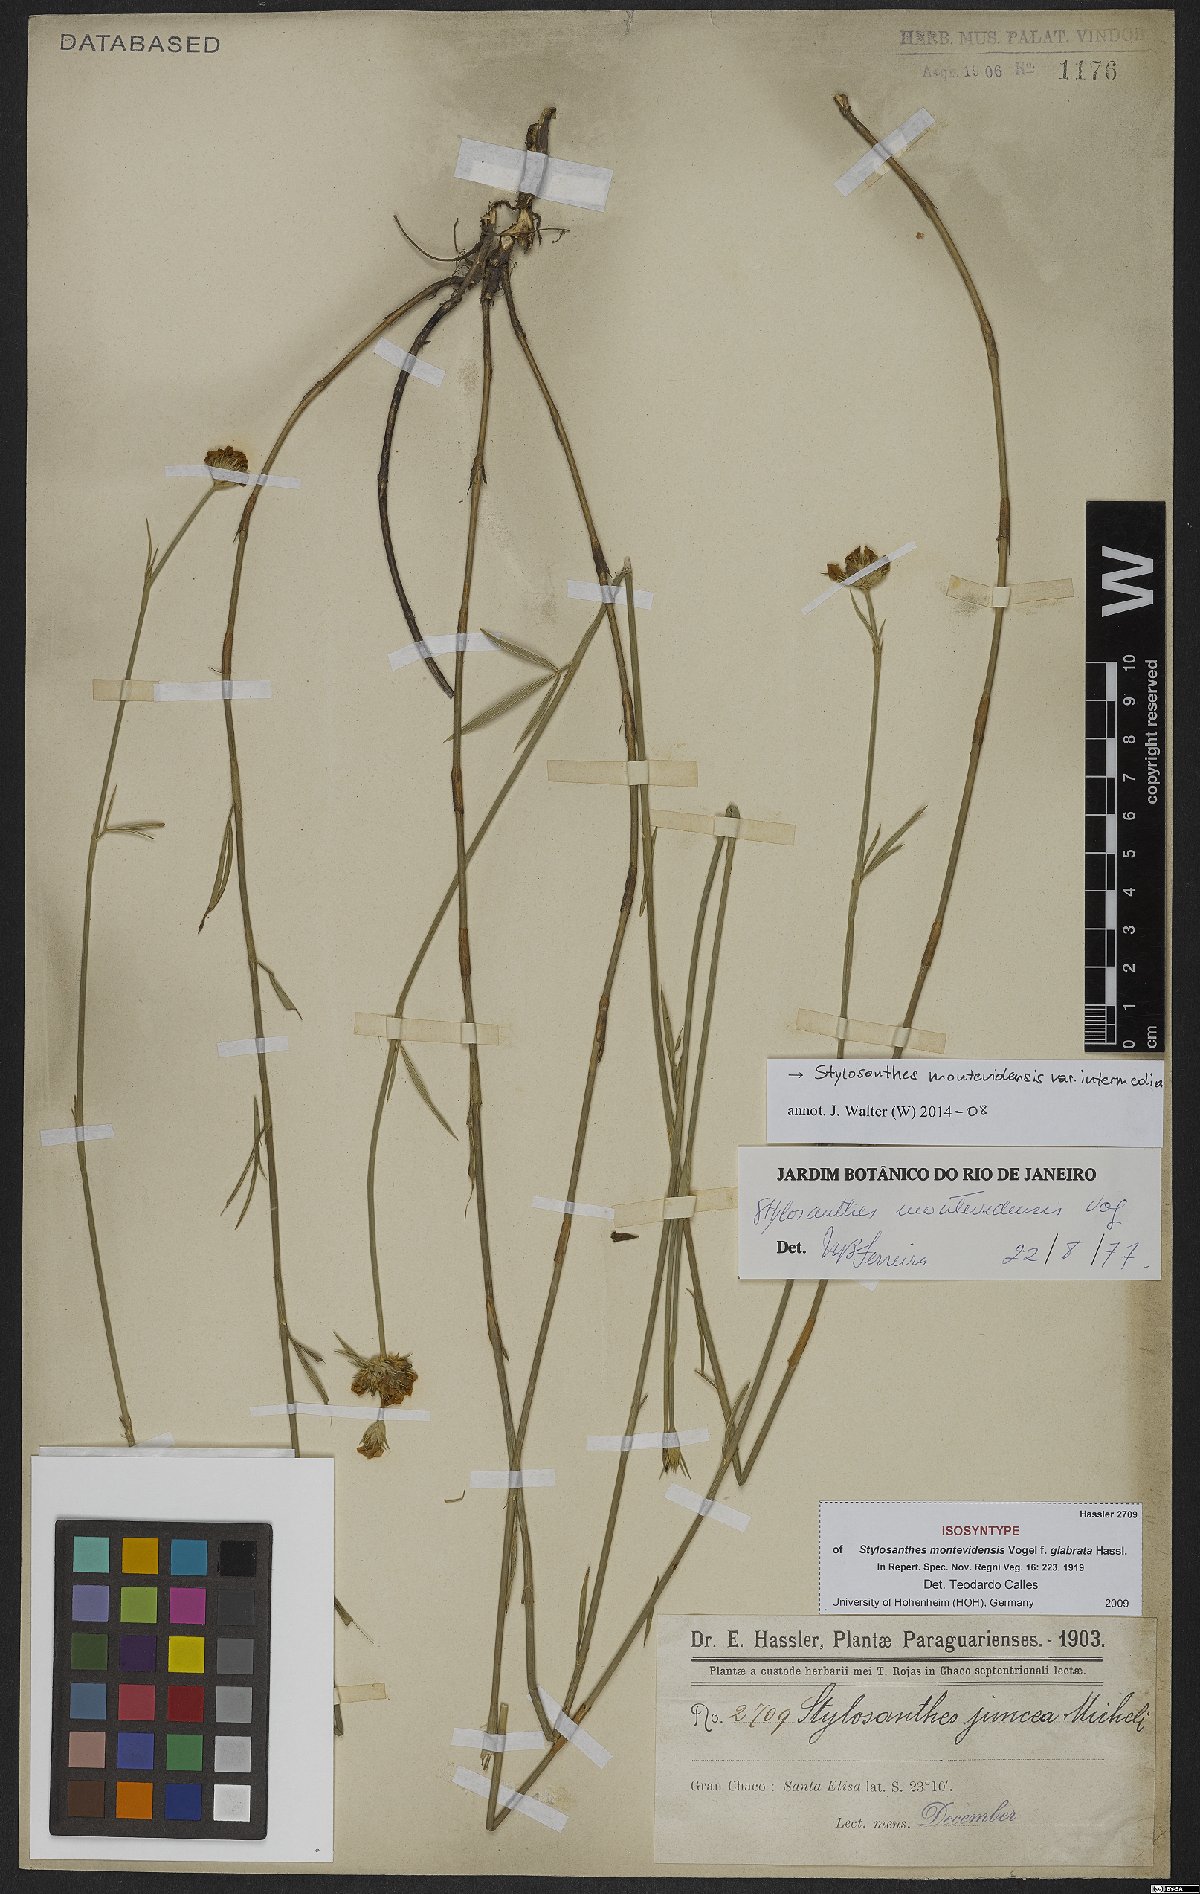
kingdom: Plantae
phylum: Tracheophyta
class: Magnoliopsida
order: Fabales
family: Fabaceae
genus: Stylosanthes
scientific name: Stylosanthes montevidensis
